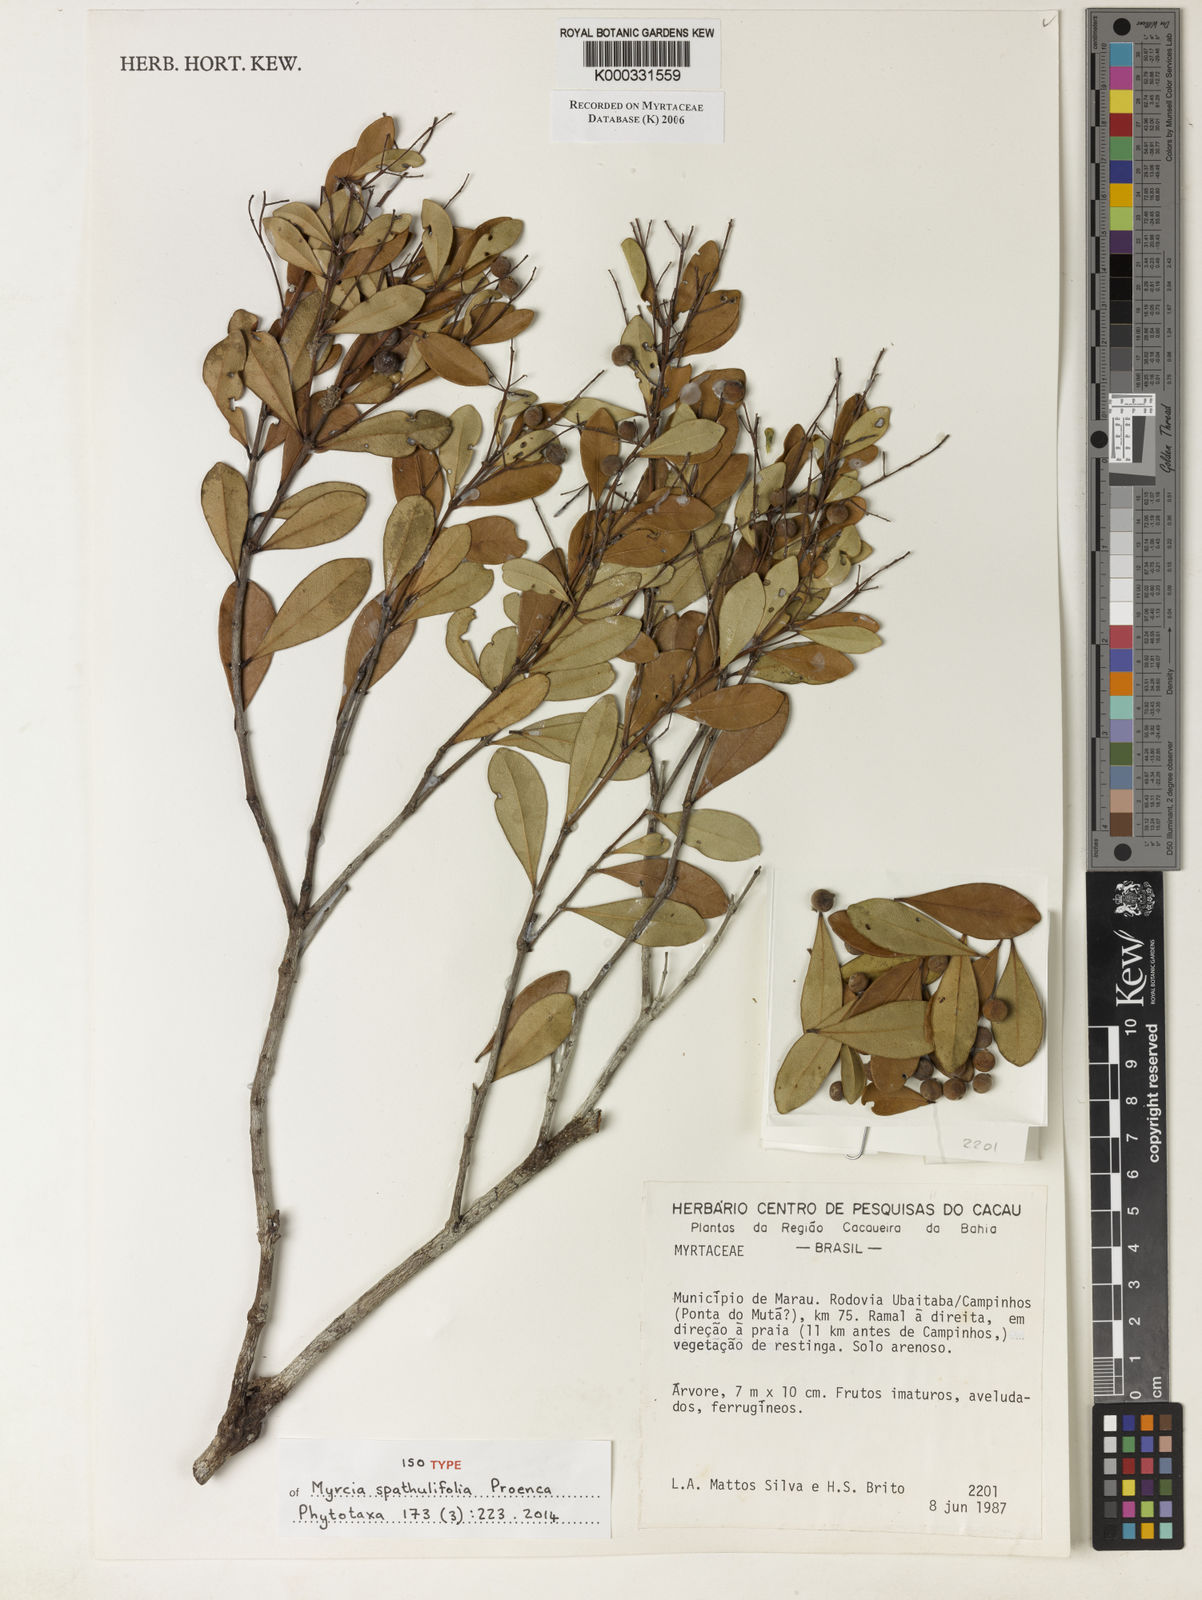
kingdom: Plantae
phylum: Tracheophyta
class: Magnoliopsida
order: Myrtales
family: Myrtaceae
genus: Myrcia
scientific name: Myrcia
